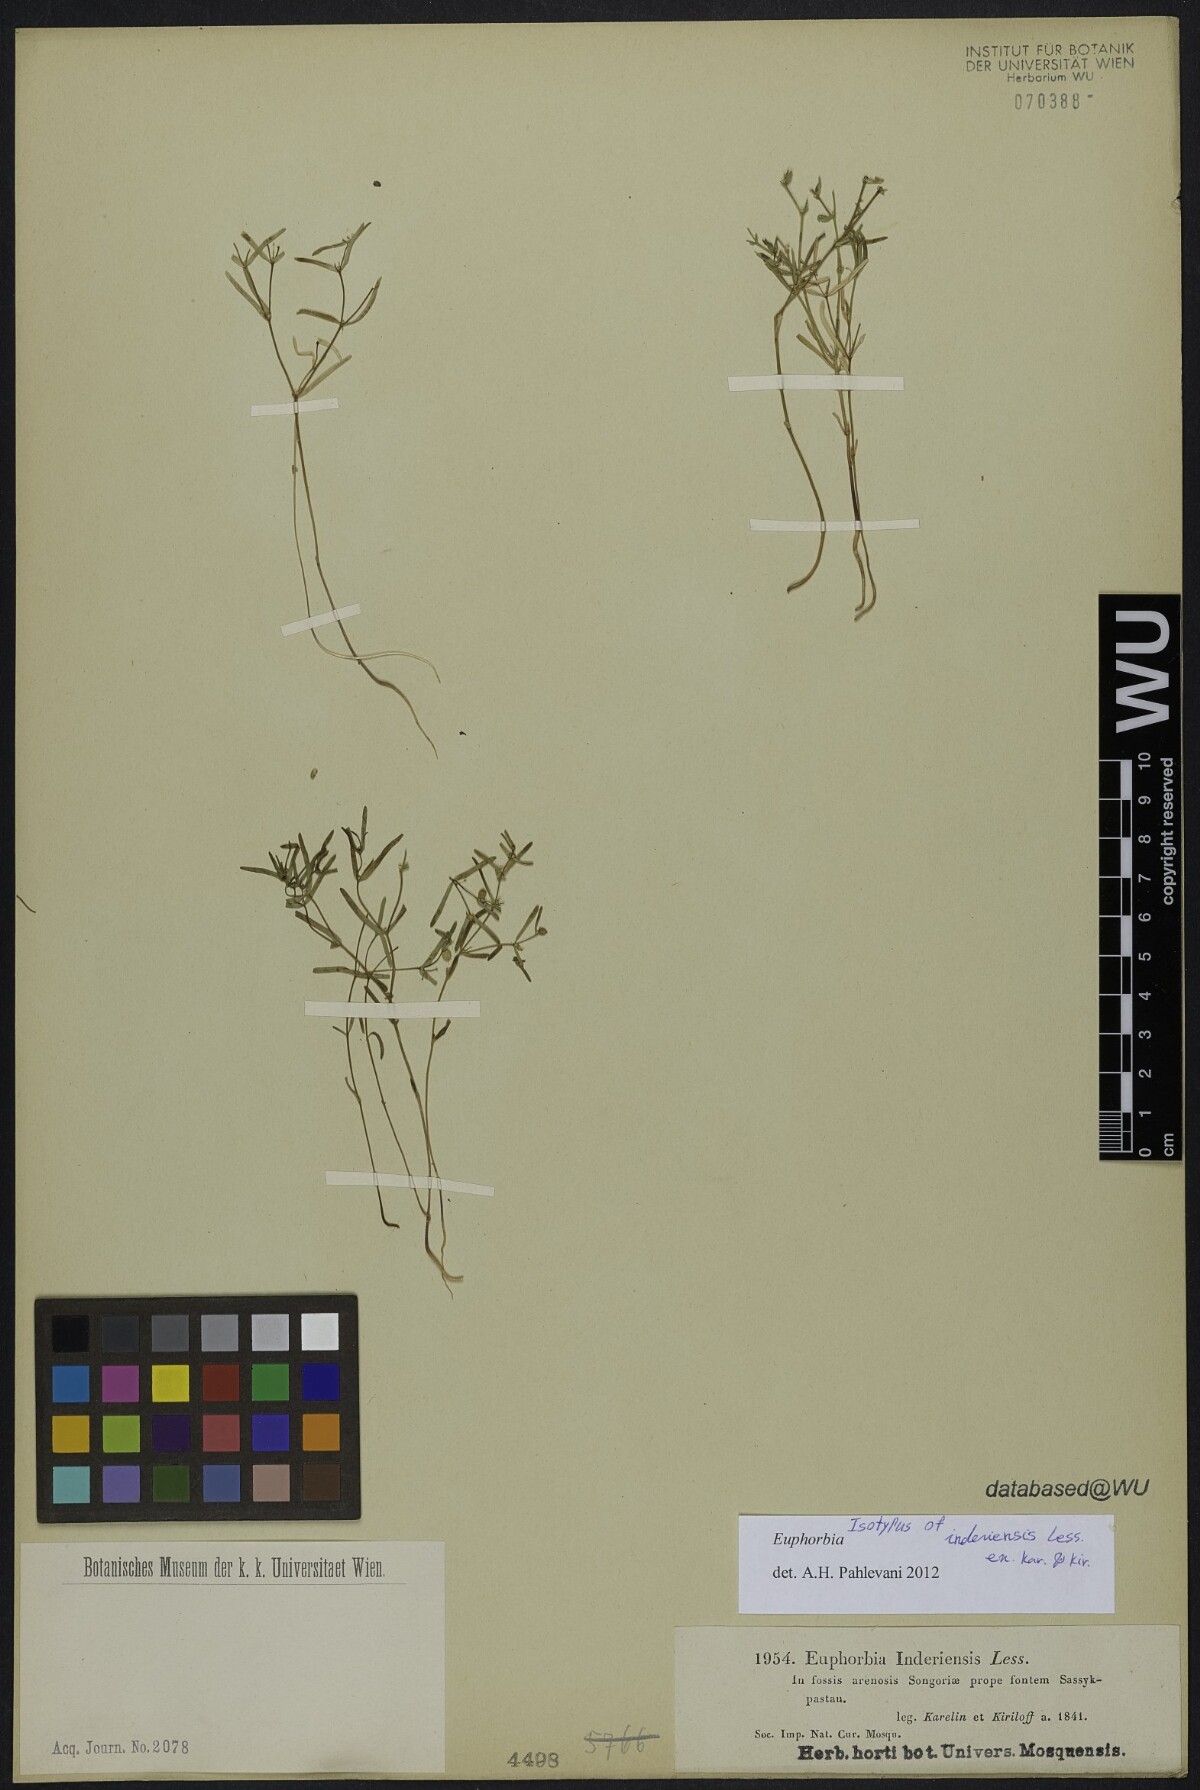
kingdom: Plantae
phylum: Tracheophyta
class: Magnoliopsida
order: Malpighiales
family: Euphorbiaceae
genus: Euphorbia
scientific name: Euphorbia inderiensis
